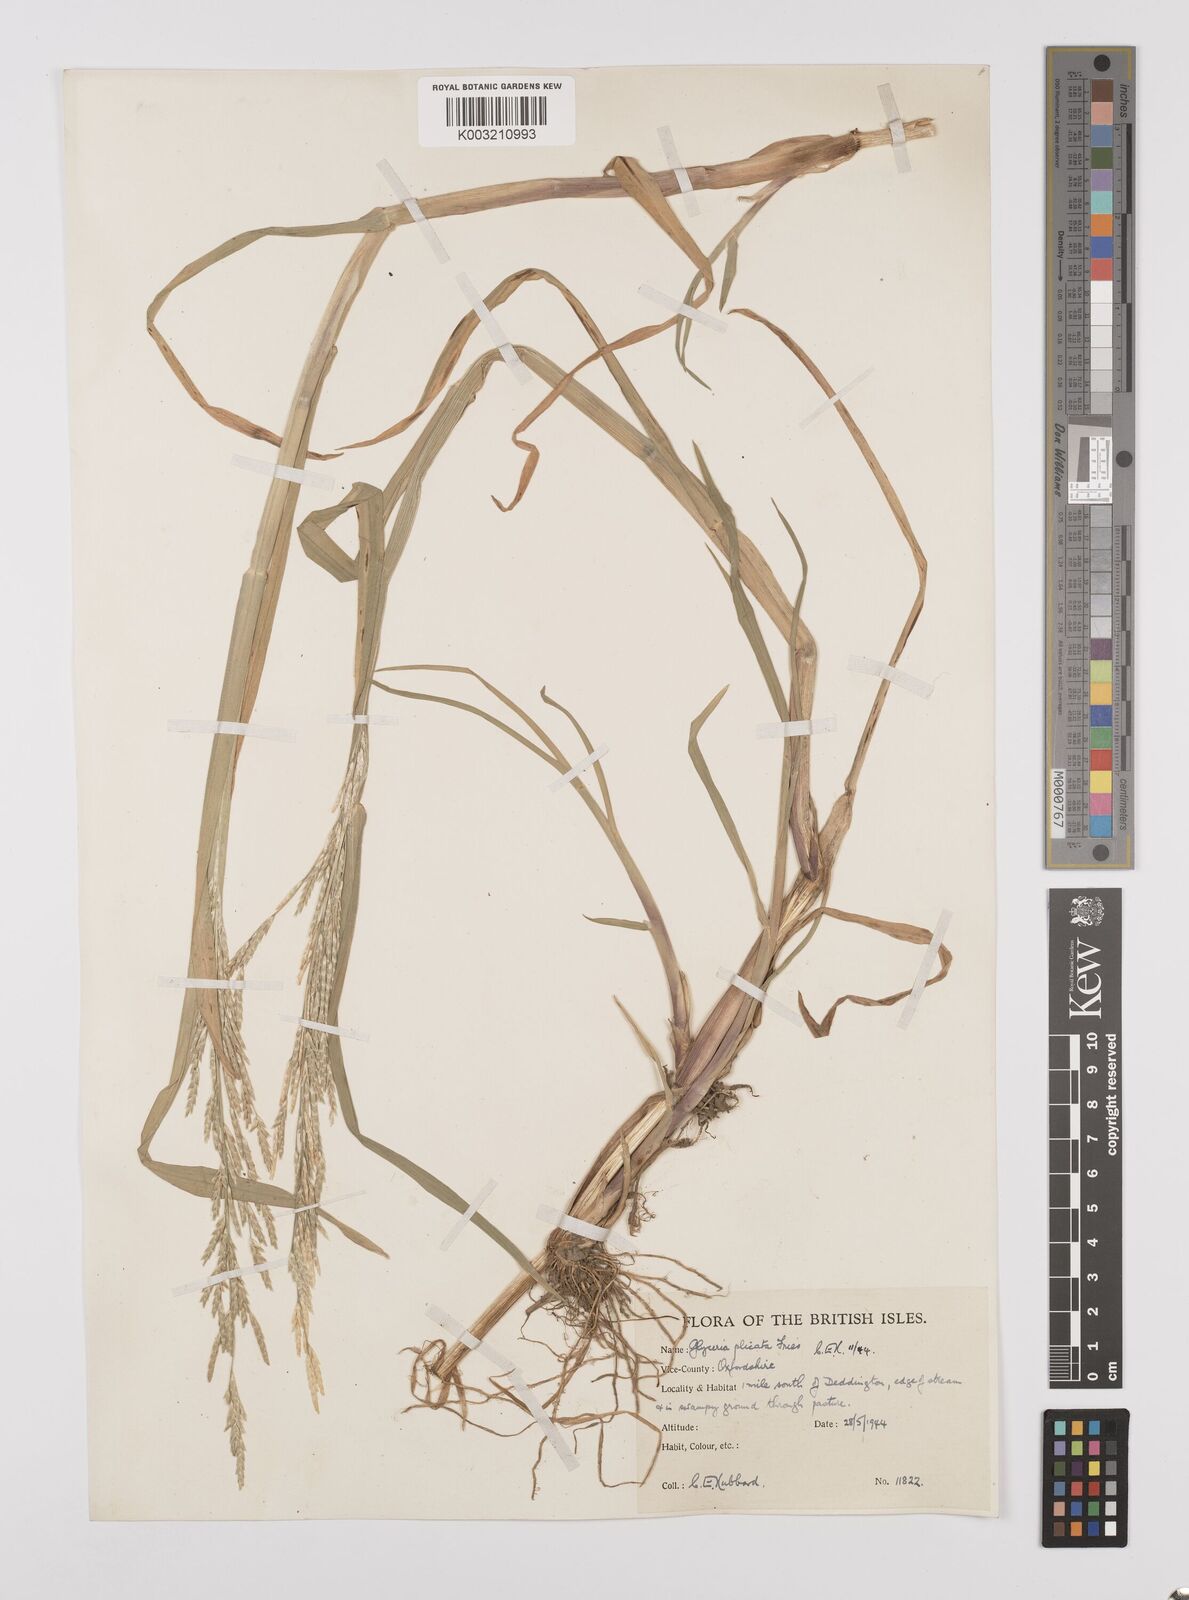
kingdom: Plantae
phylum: Tracheophyta
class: Liliopsida
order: Poales
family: Poaceae
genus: Glyceria
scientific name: Glyceria notata
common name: Plicate sweet-grass
